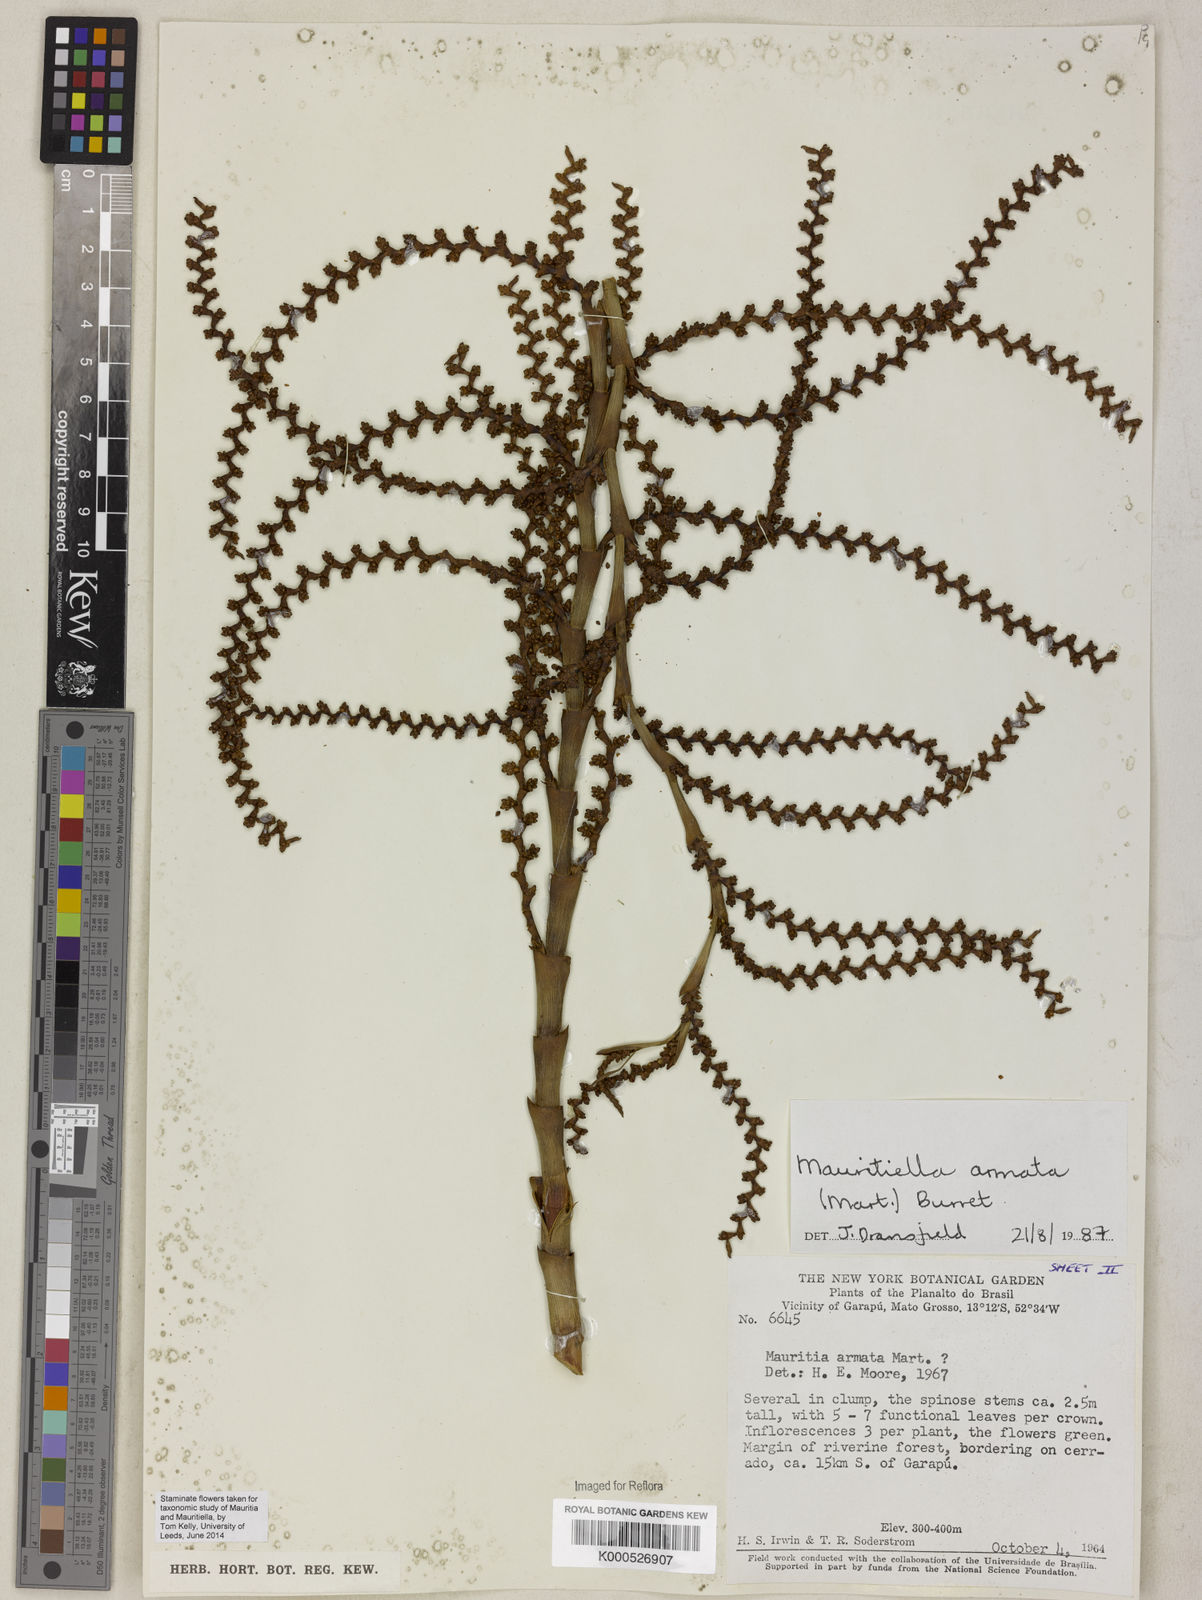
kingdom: Plantae
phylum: Tracheophyta
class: Liliopsida
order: Arecales
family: Arecaceae
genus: Mauritiella
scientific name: Mauritiella armata
